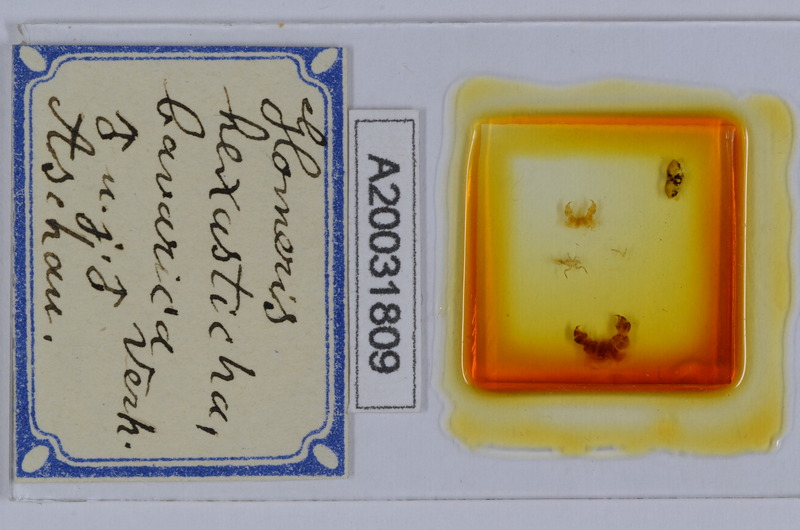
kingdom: Animalia
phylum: Arthropoda
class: Diplopoda
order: Glomerida
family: Glomeridae
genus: Glomeris
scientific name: Glomeris hexasticha
